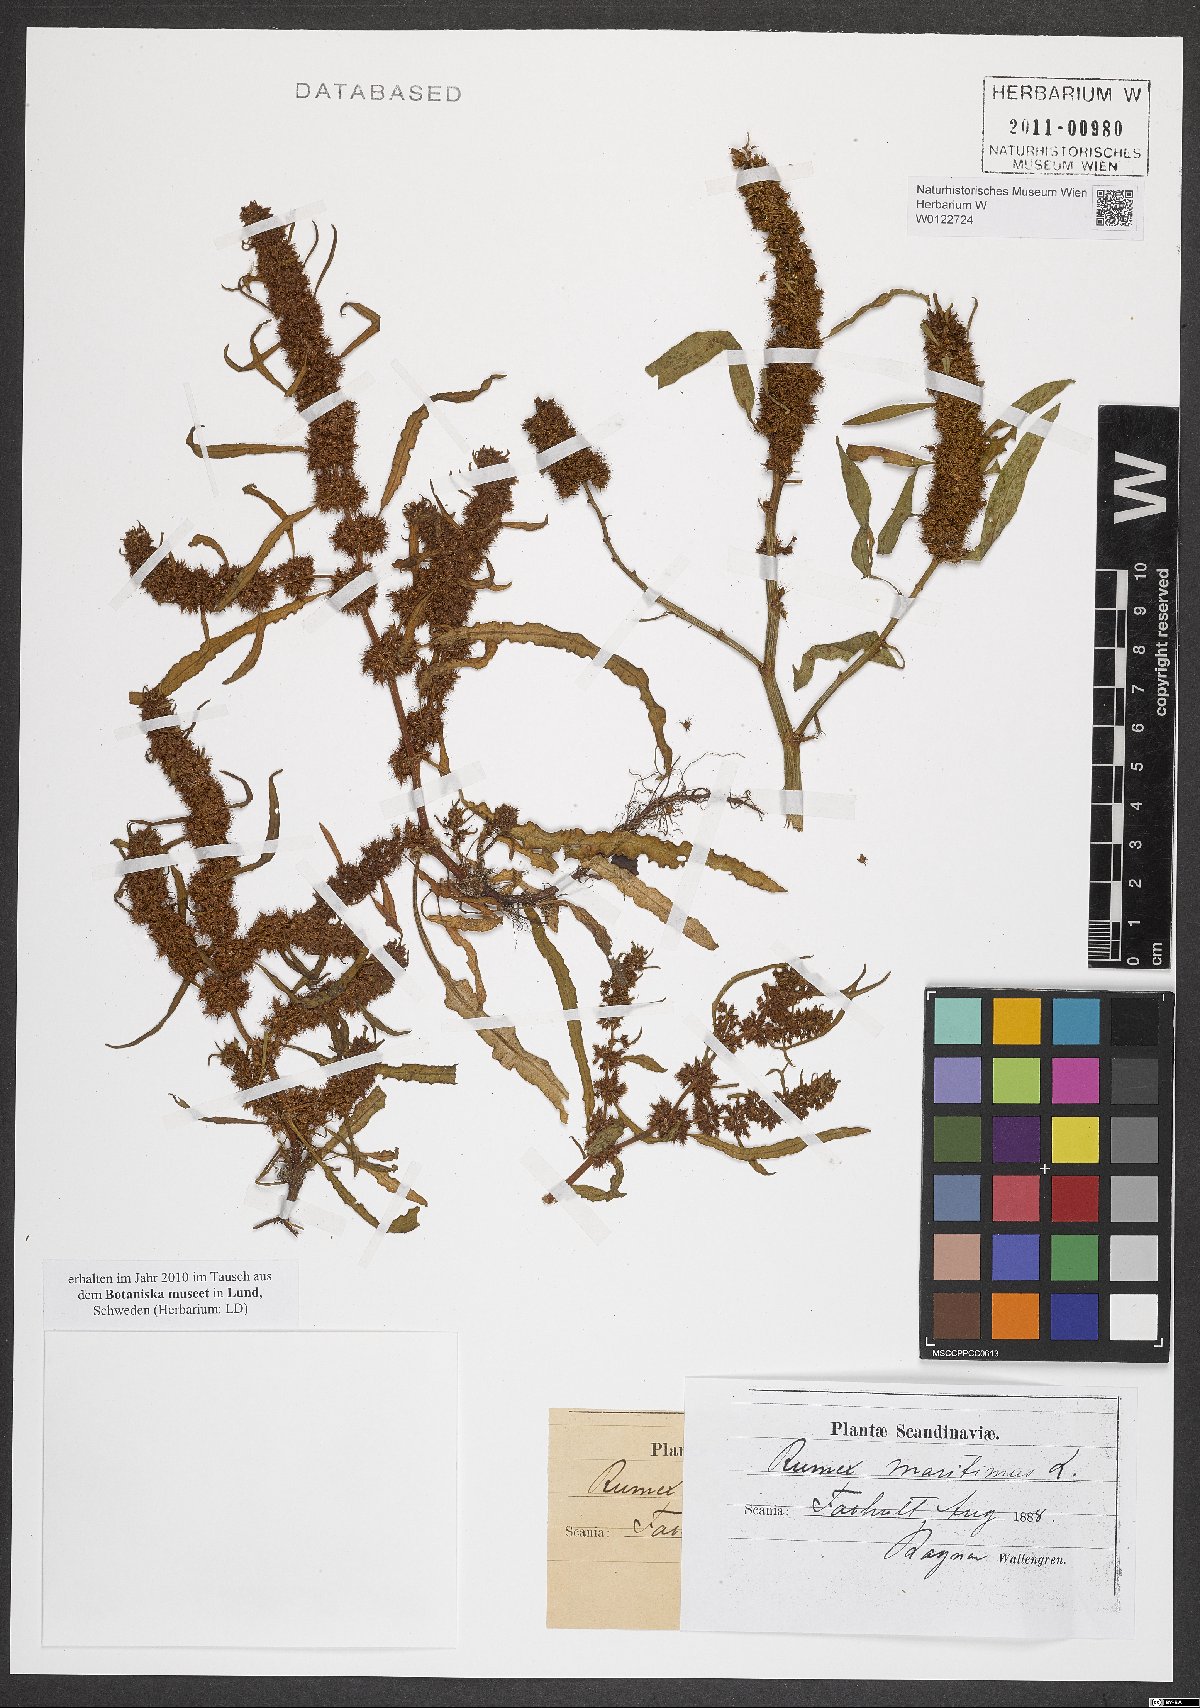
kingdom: Plantae
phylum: Tracheophyta
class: Magnoliopsida
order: Caryophyllales
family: Polygonaceae
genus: Rumex
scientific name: Rumex maritimus
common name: Golden dock
